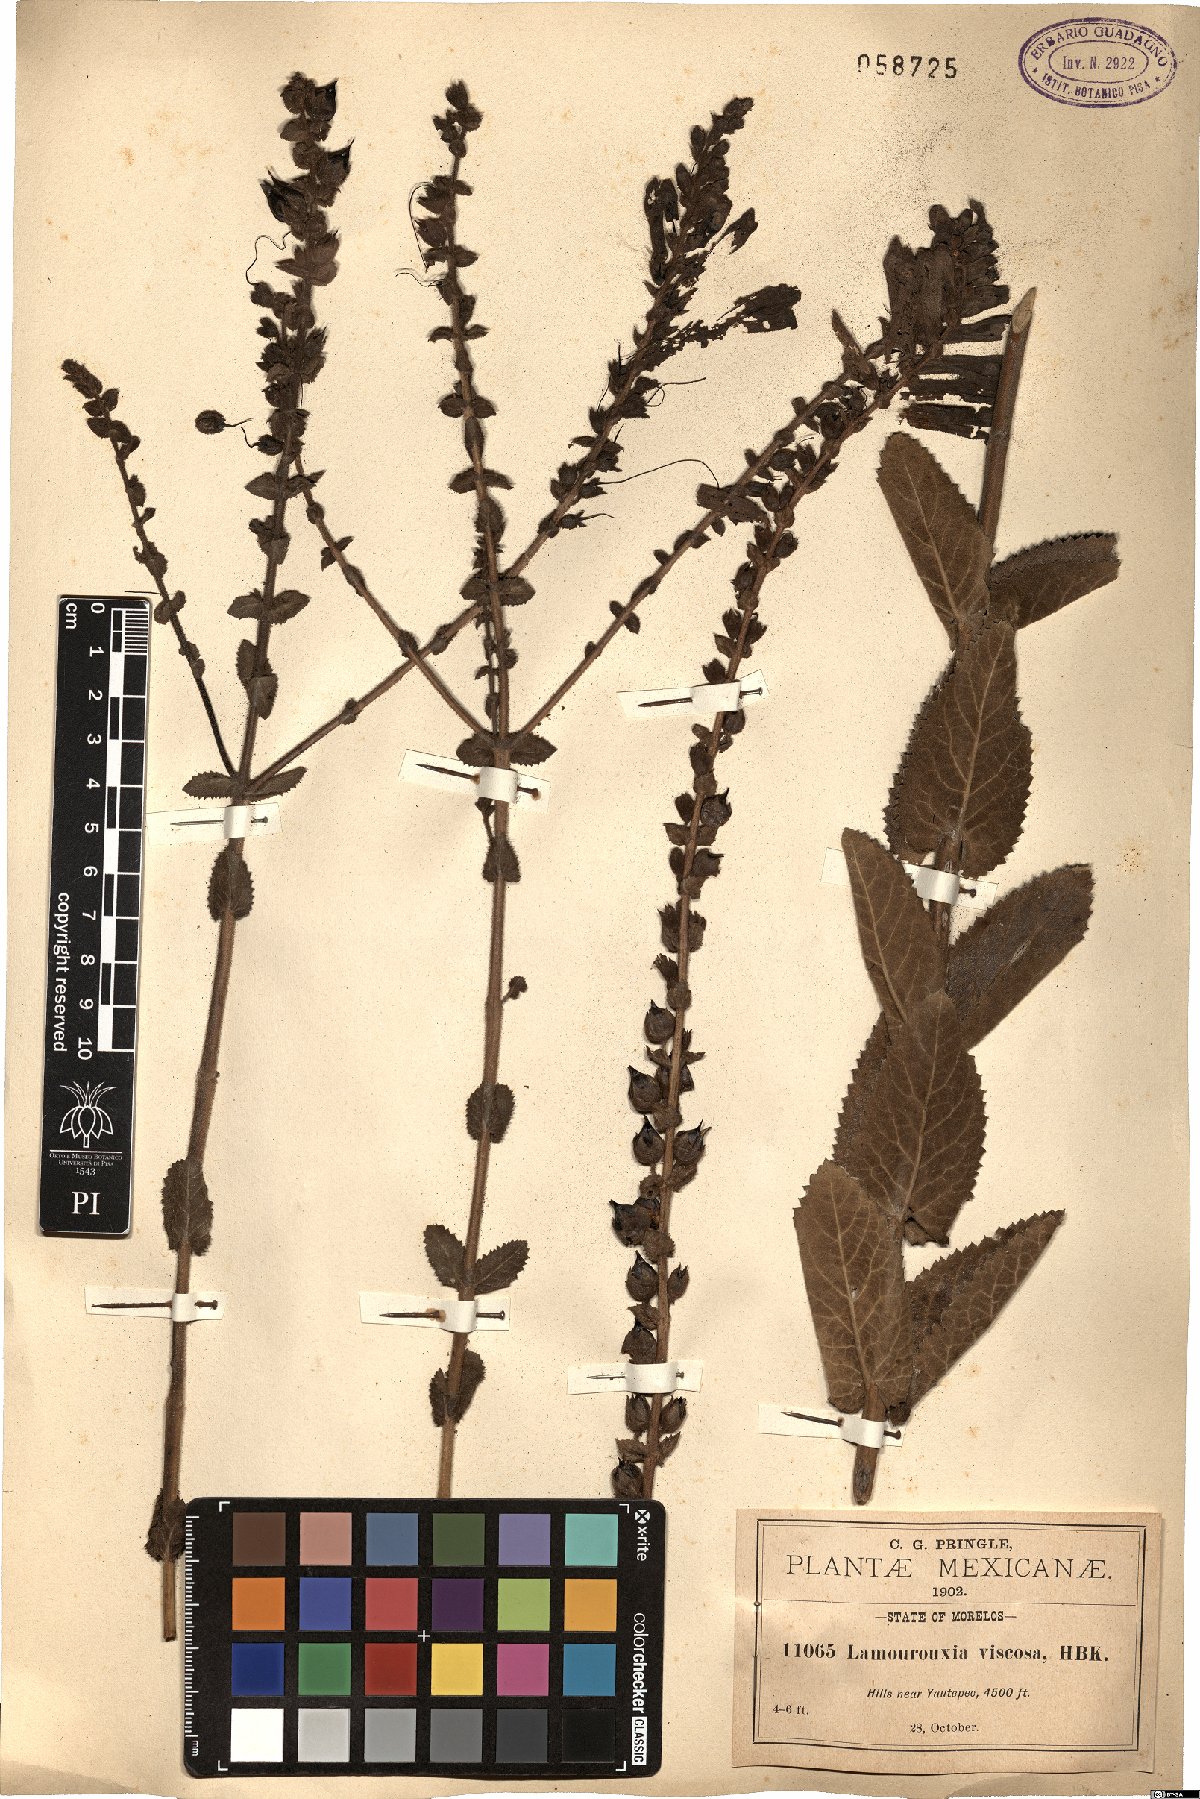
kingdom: Plantae
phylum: Tracheophyta
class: Magnoliopsida
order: Lamiales
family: Orobanchaceae
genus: Lamourouxia
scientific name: Lamourouxia viscosa
